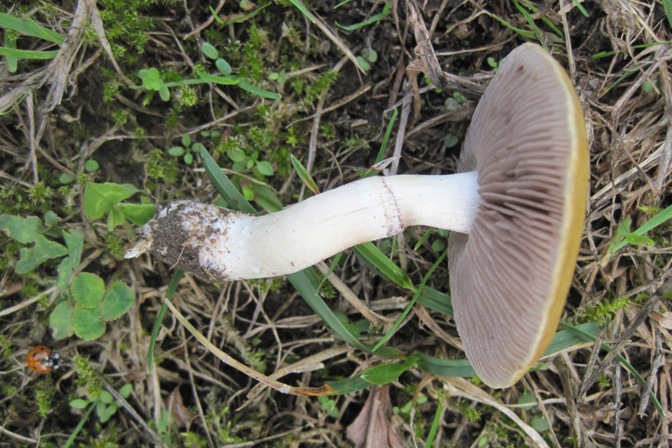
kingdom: Fungi
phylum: Basidiomycota
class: Agaricomycetes
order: Agaricales
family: Hymenogastraceae
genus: Psilocybe
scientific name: Psilocybe coronilla
